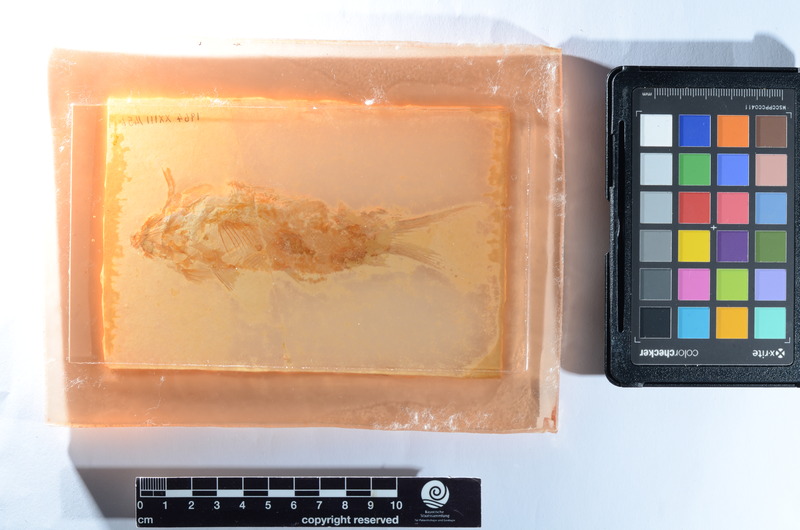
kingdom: Animalia
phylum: Chordata
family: Macrosemiidae
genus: Propterus
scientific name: Propterus
